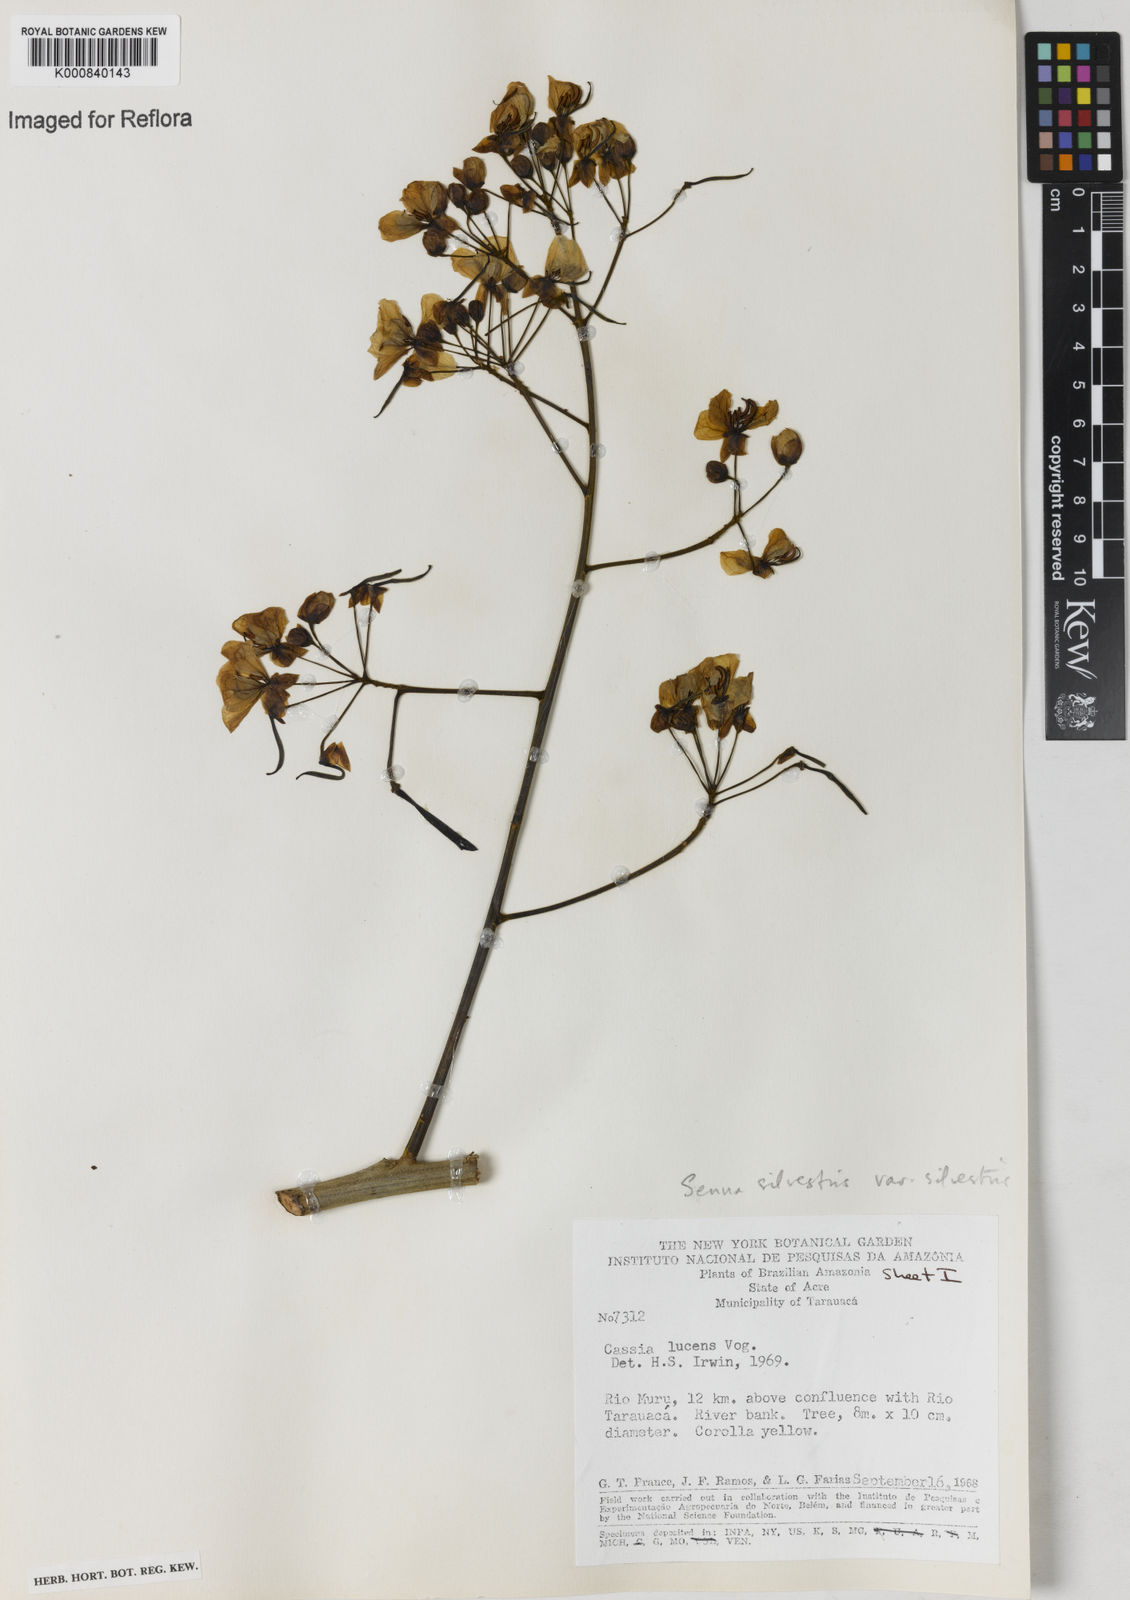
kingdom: Plantae
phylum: Tracheophyta
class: Magnoliopsida
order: Fabales
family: Fabaceae
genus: Senna
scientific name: Senna silvestris
